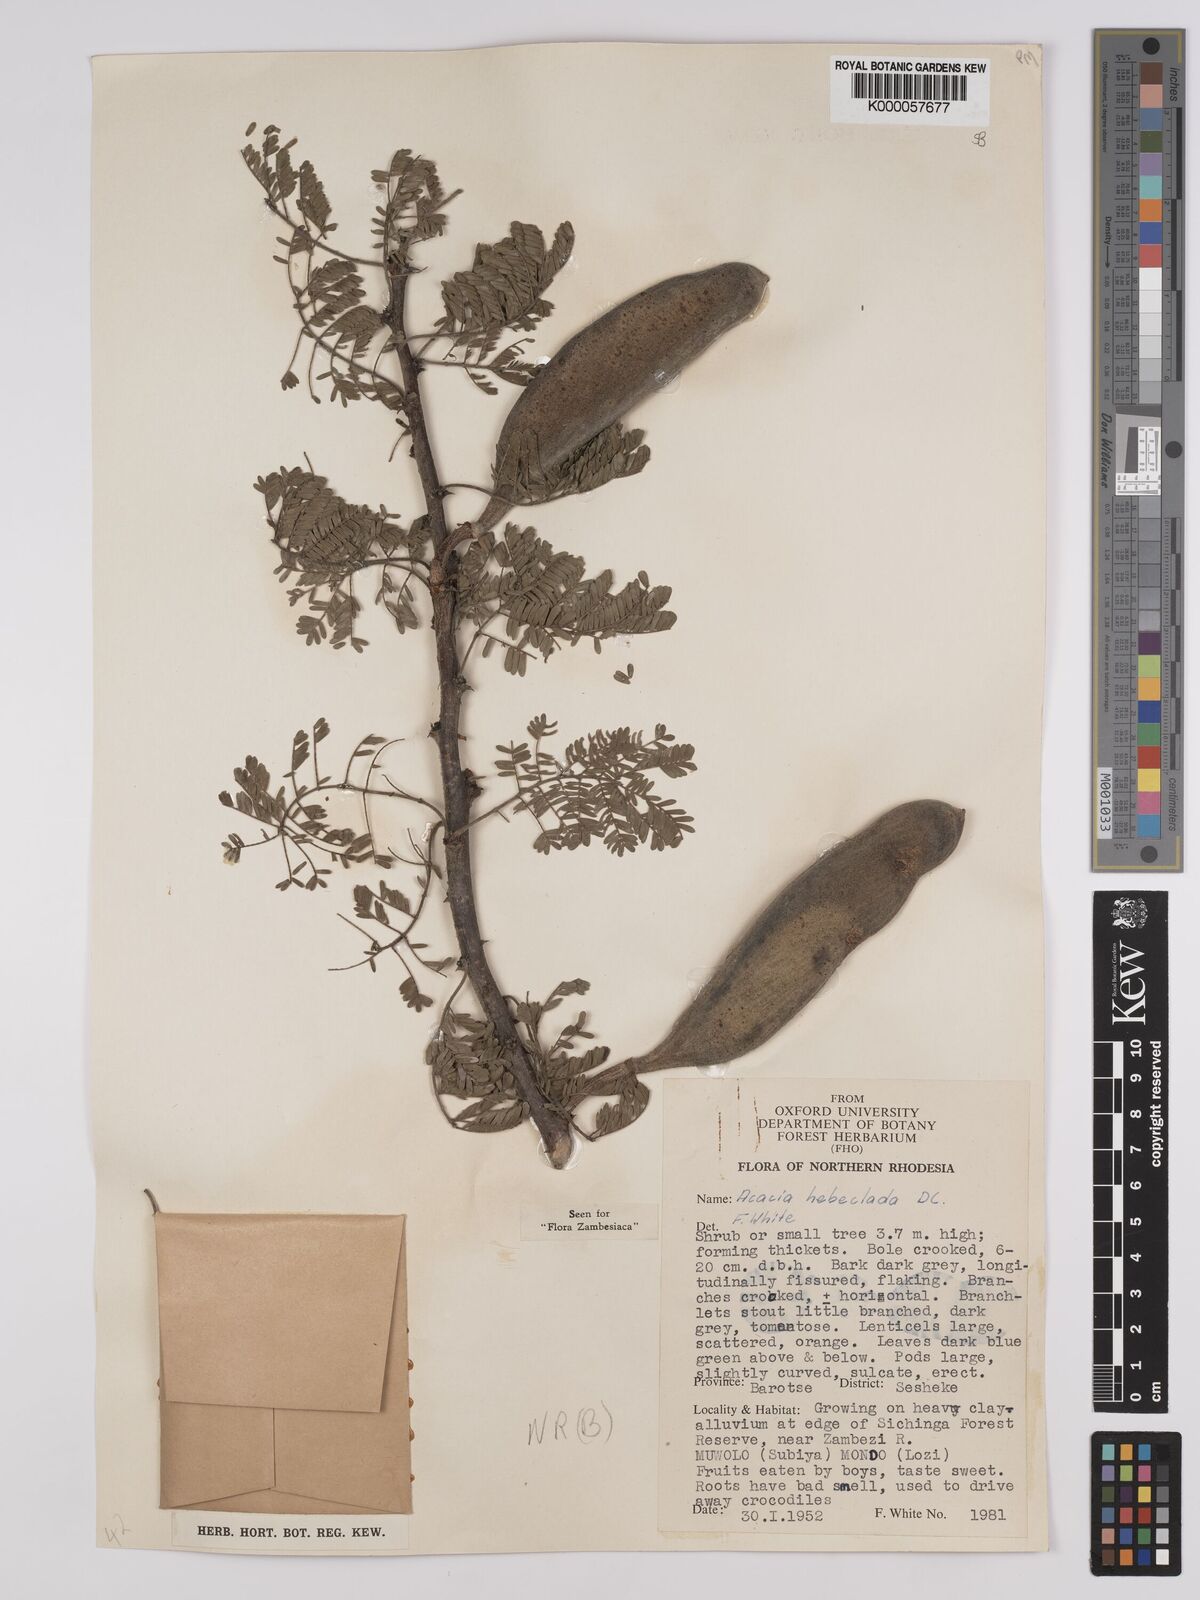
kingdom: Plantae
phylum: Tracheophyta
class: Magnoliopsida
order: Fabales
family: Fabaceae
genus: Vachellia
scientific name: Vachellia hebeclada
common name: Candle thorn
